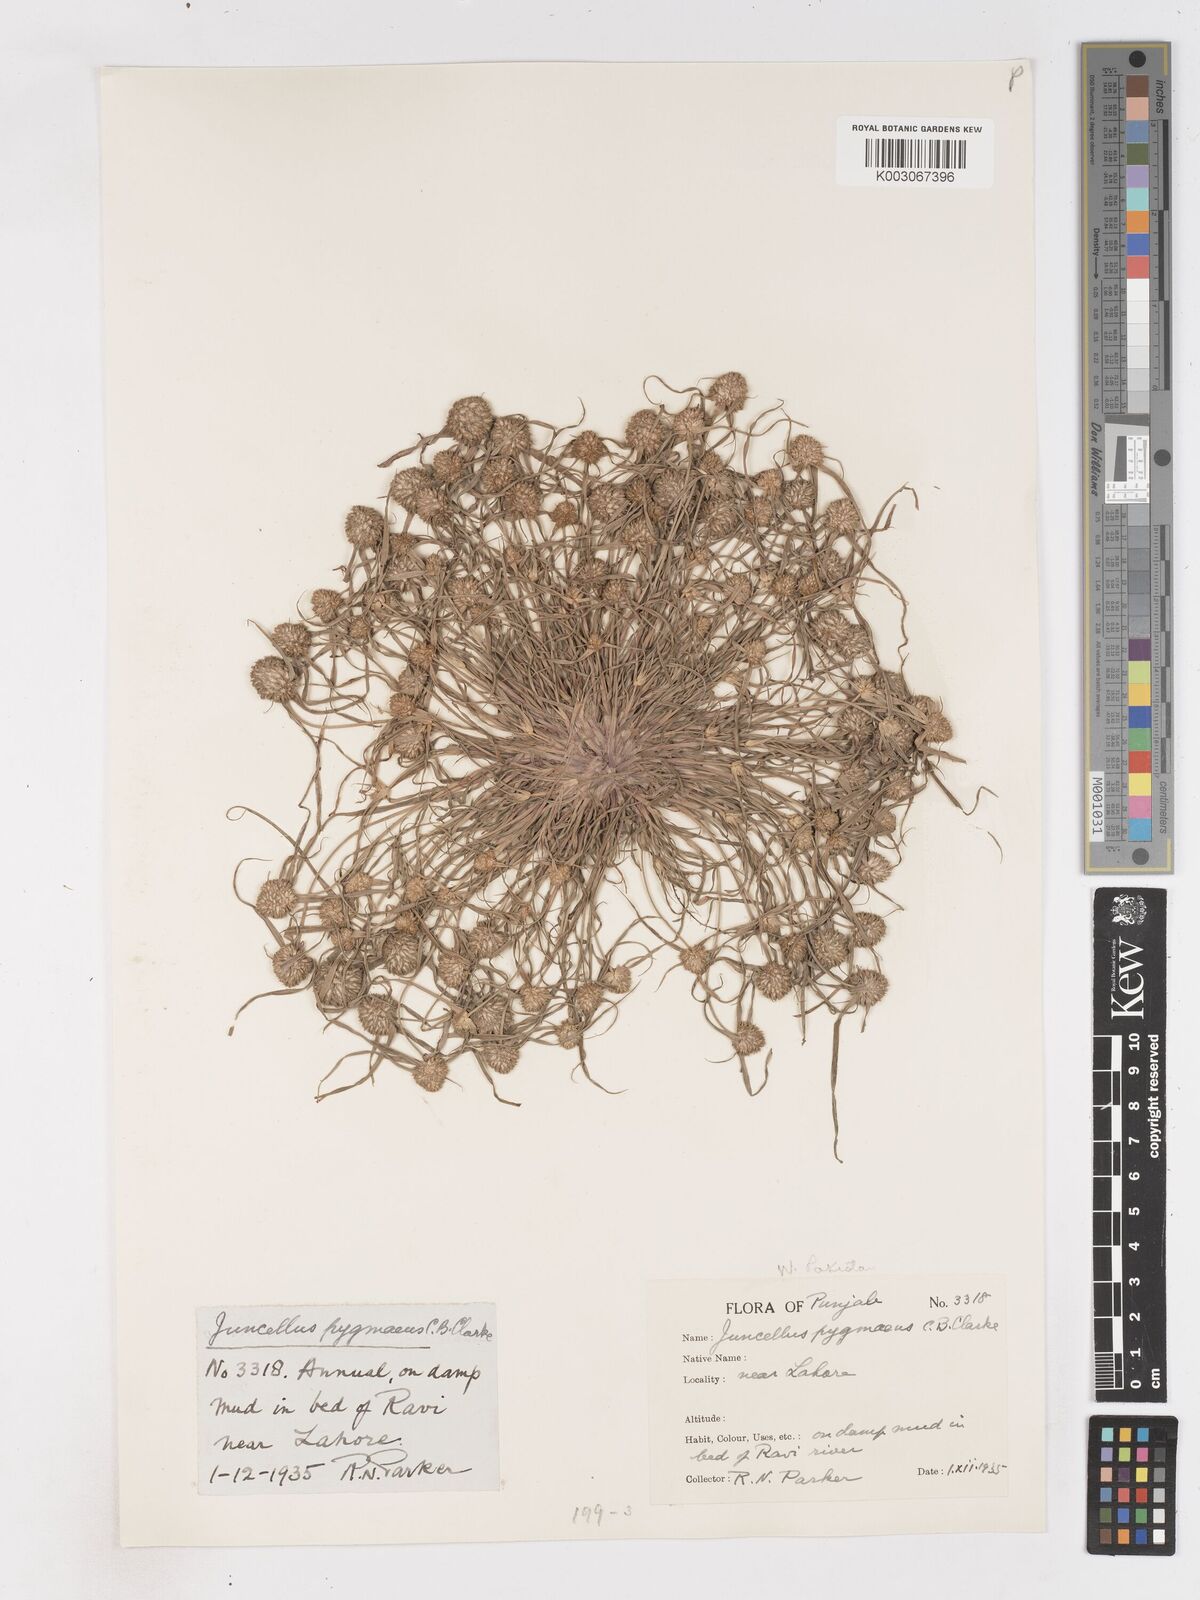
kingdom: Plantae
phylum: Tracheophyta
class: Liliopsida
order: Poales
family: Cyperaceae
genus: Cyperus
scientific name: Cyperus michelianus
